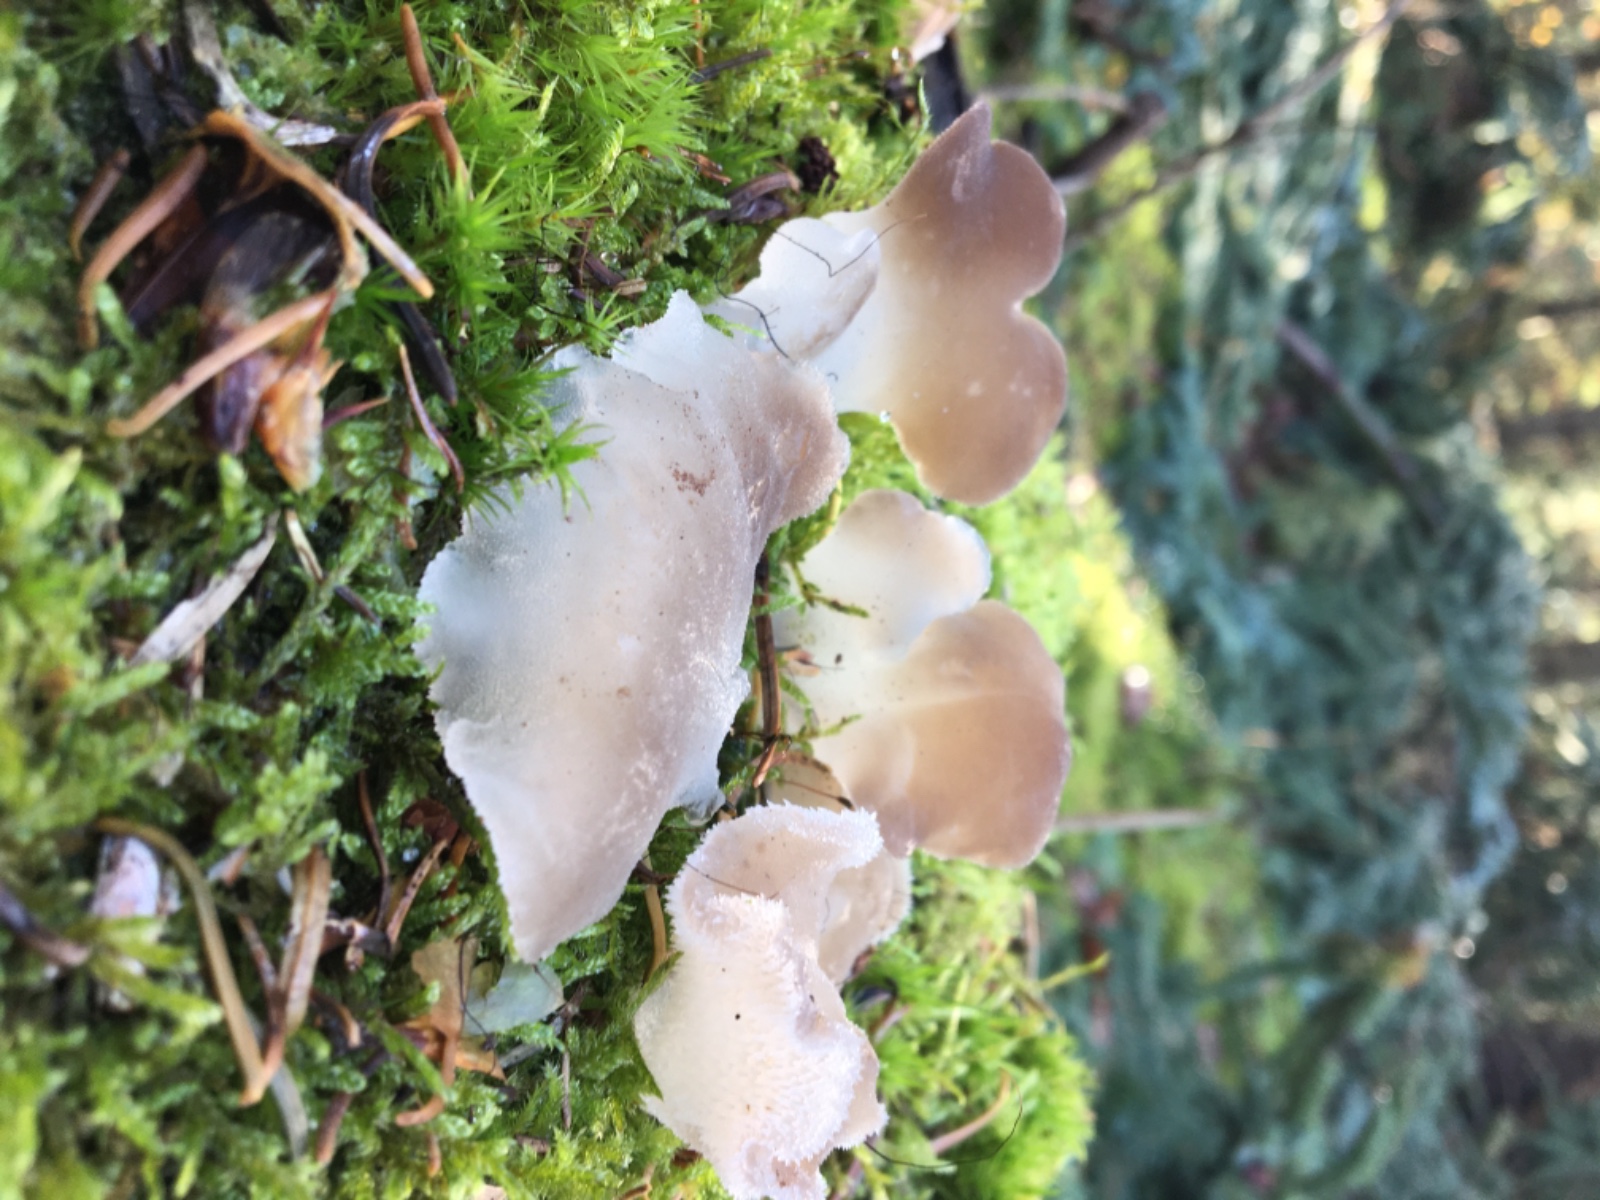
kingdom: Fungi
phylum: Basidiomycota
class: Agaricomycetes
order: Auriculariales
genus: Pseudohydnum
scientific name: Pseudohydnum gelatinosum
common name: bævretand
